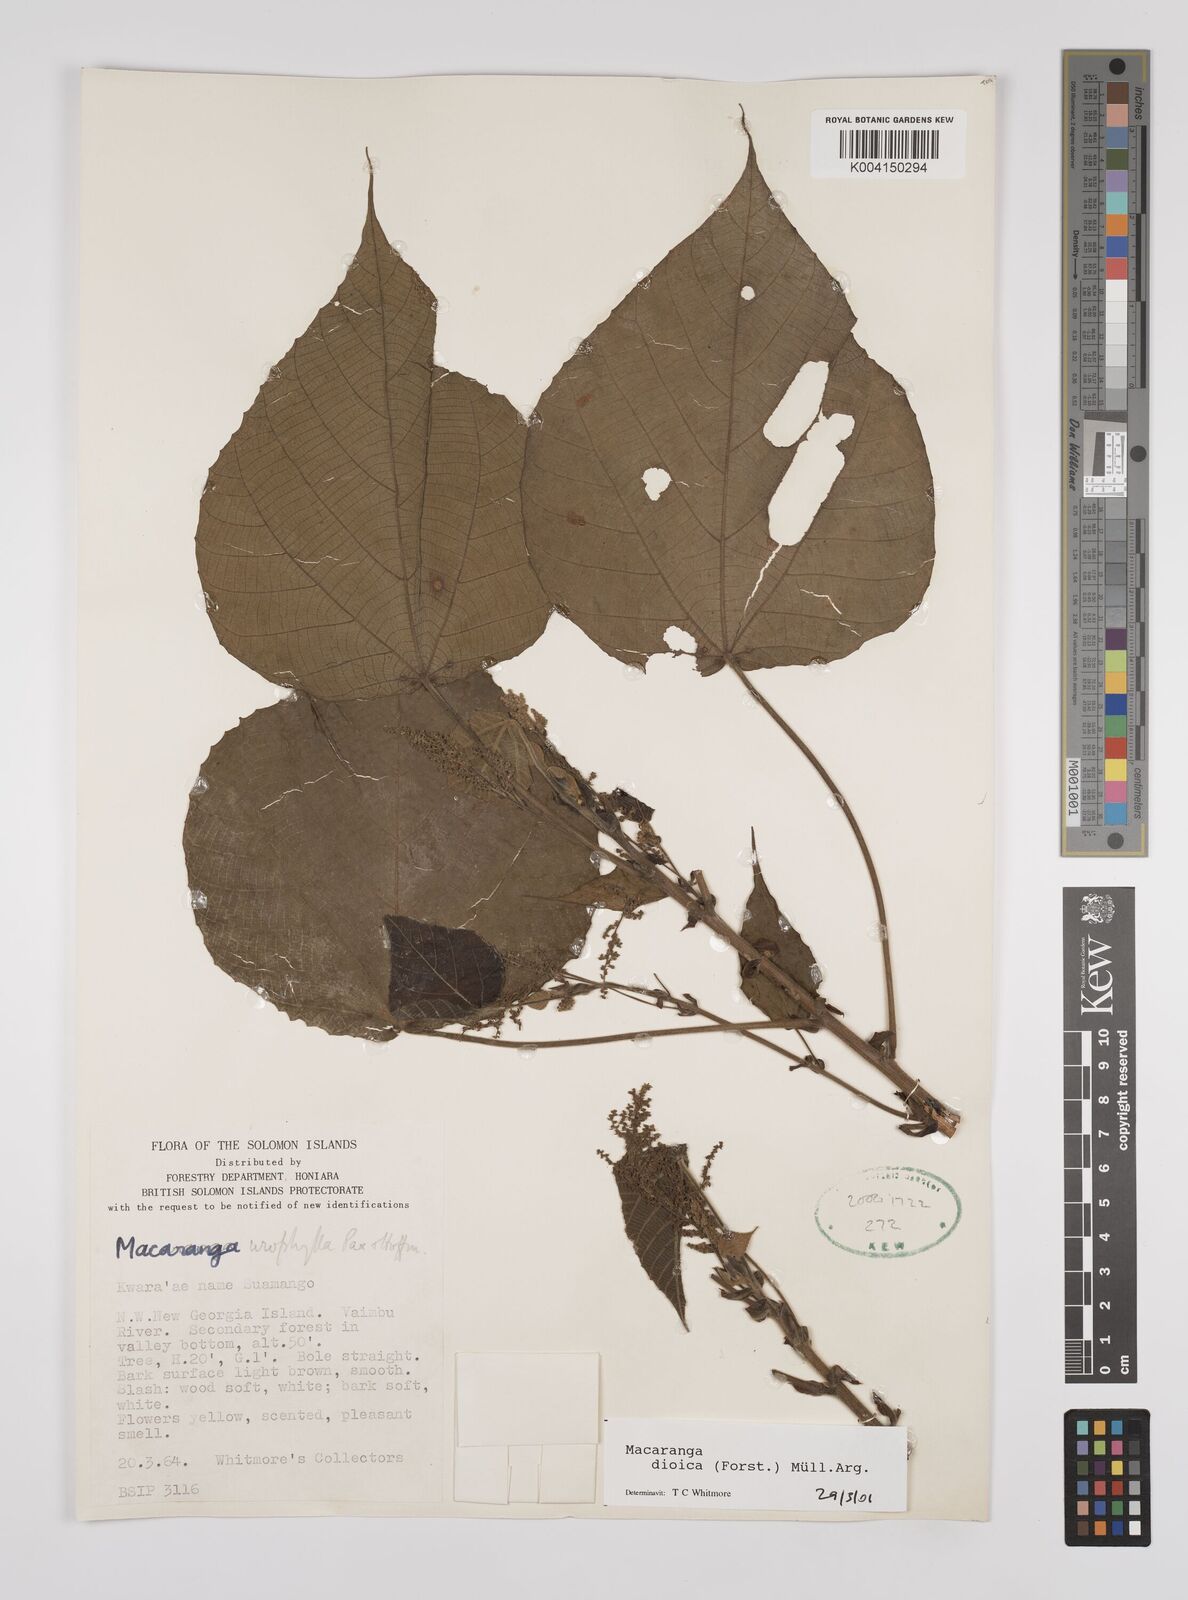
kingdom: Plantae
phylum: Tracheophyta
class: Magnoliopsida
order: Malpighiales
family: Euphorbiaceae
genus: Macaranga
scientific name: Macaranga dioica
